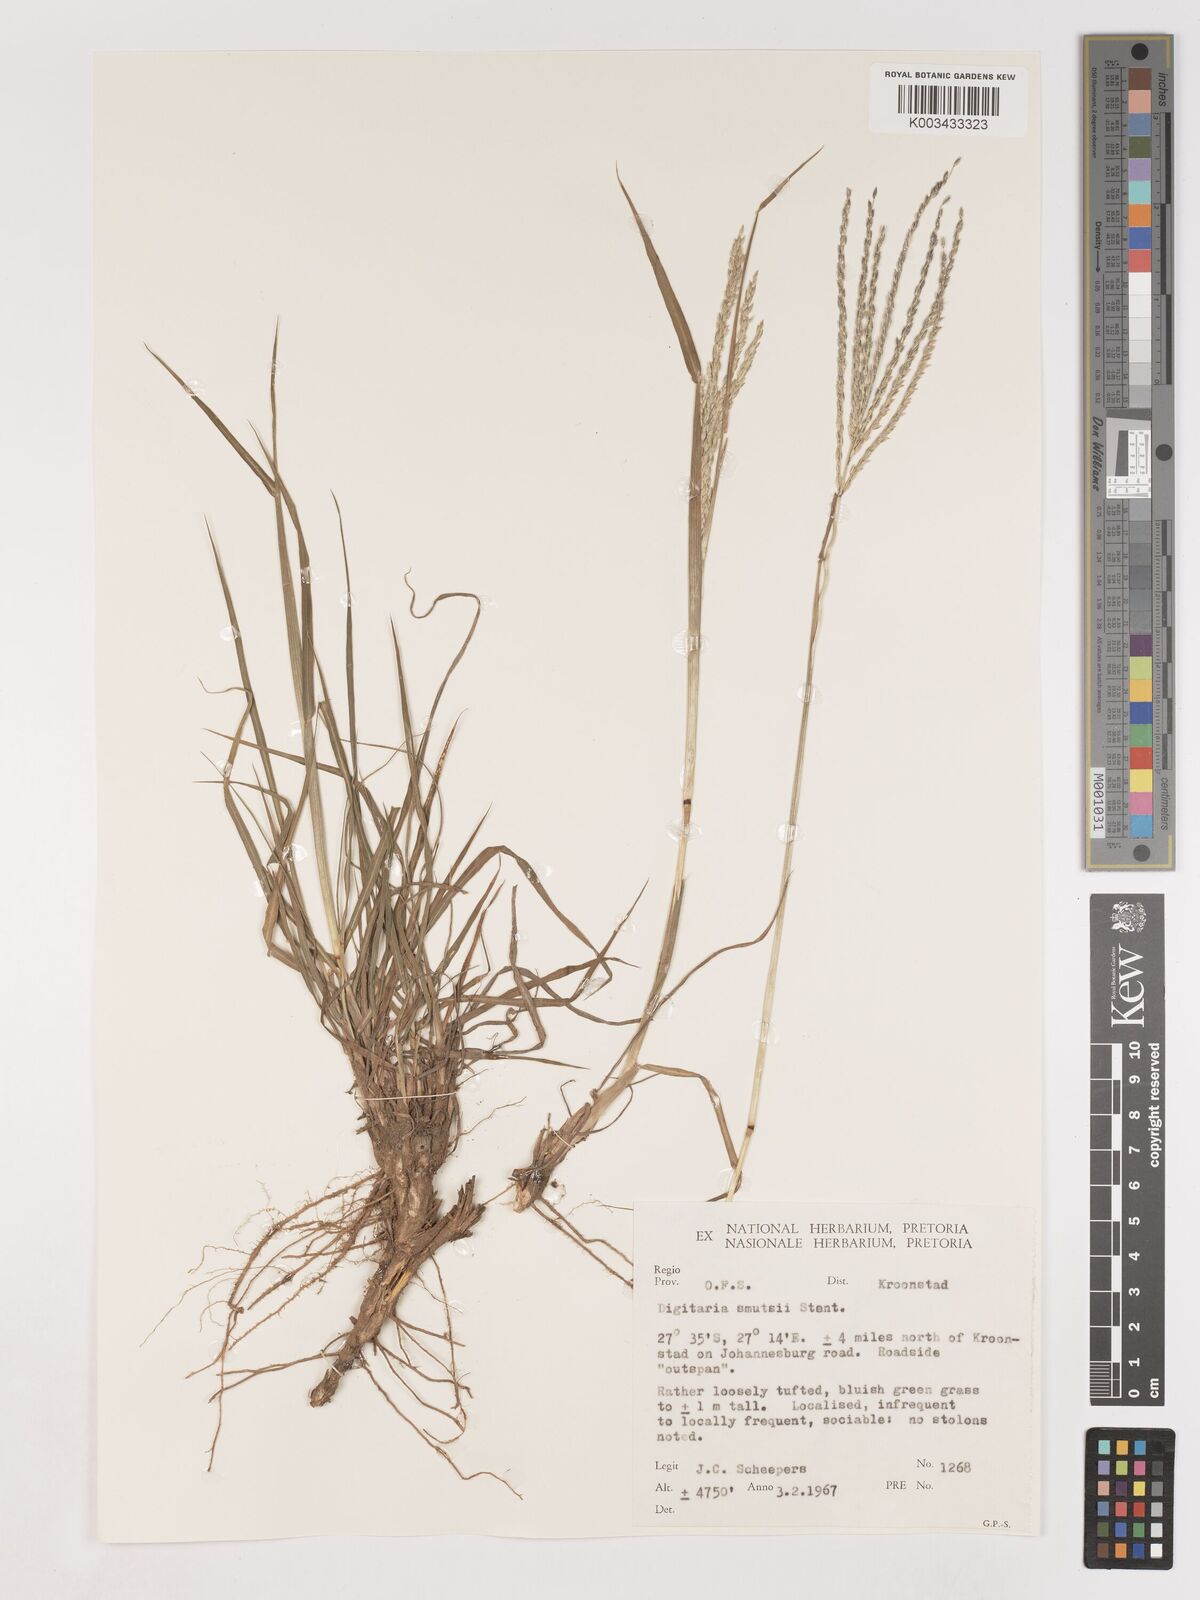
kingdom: Plantae
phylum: Tracheophyta
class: Liliopsida
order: Poales
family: Poaceae
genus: Digitaria
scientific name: Digitaria eriantha
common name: Digitgrass
